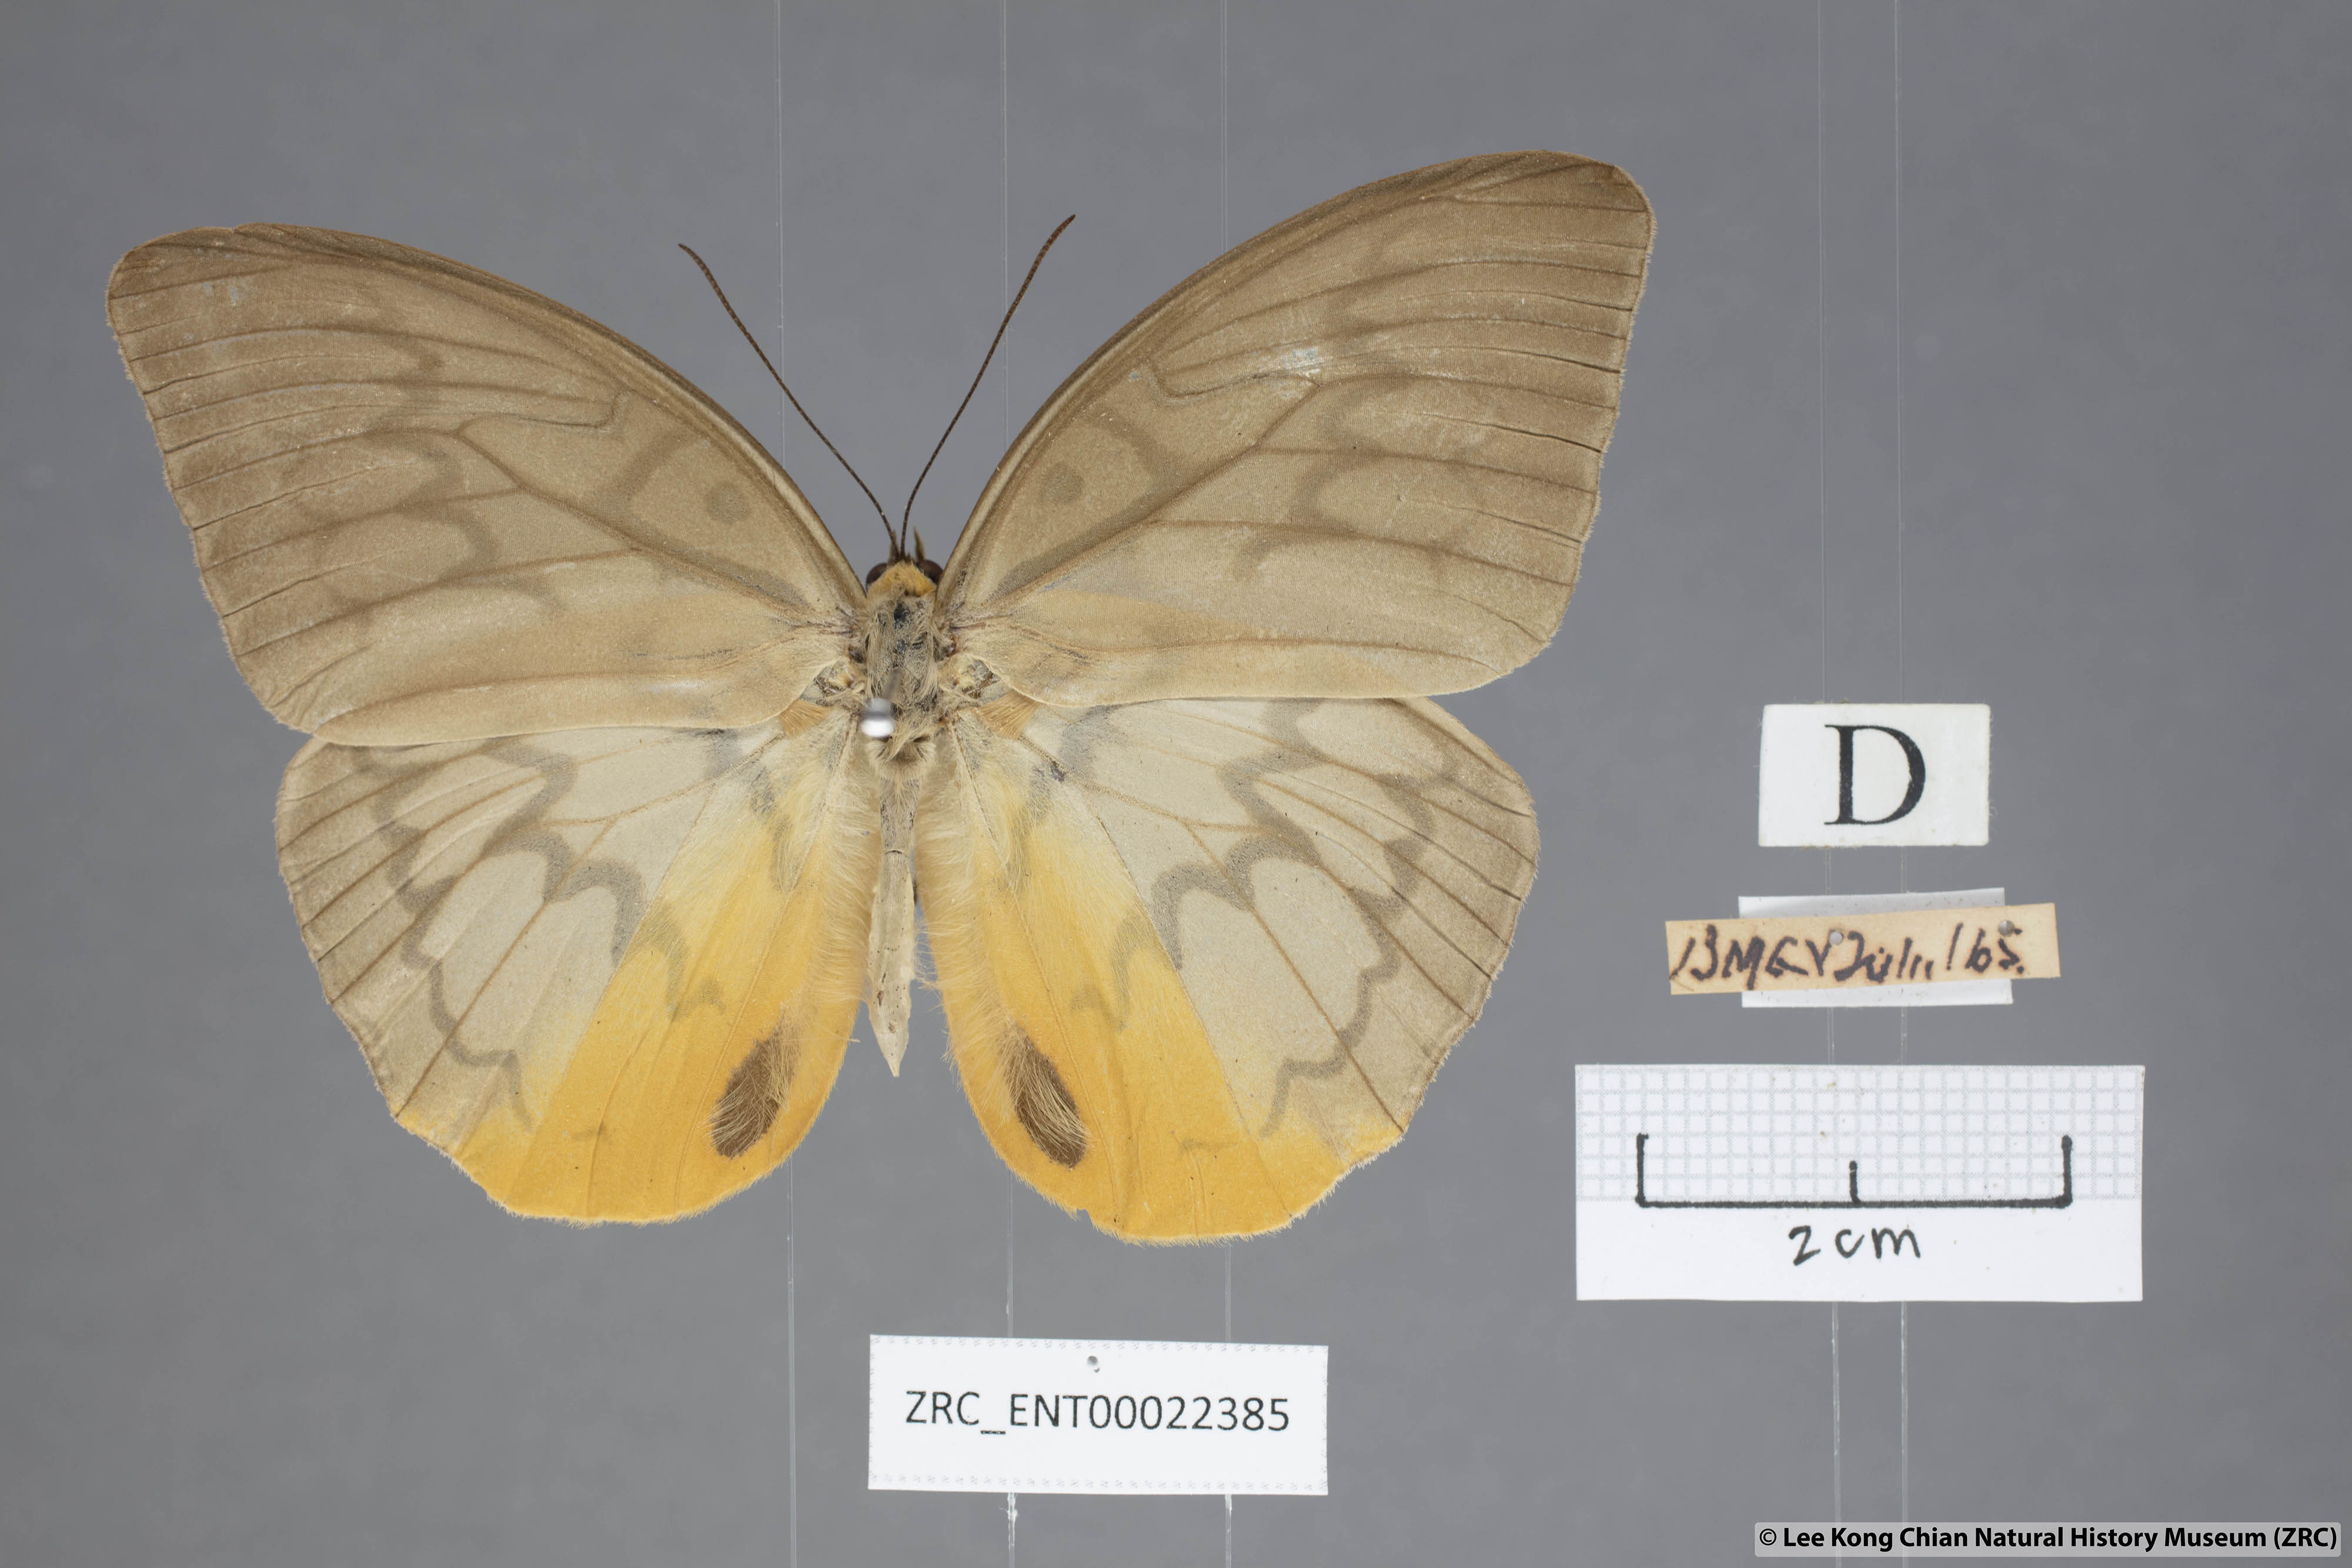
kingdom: Animalia
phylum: Arthropoda
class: Insecta
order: Lepidoptera
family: Nymphalidae
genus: Faunis
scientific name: Faunis Melanocyma faunula
